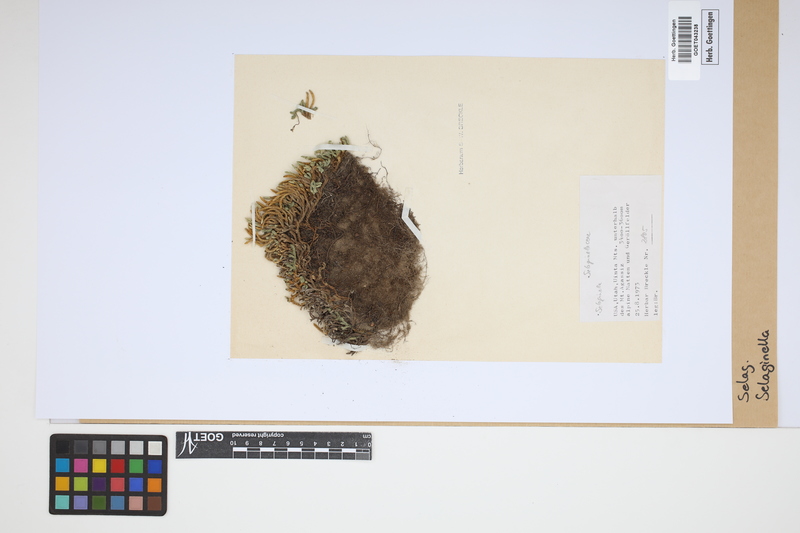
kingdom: Plantae
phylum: Tracheophyta
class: Lycopodiopsida
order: Selaginellales
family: Selaginellaceae
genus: Selaginella
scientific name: Selaginella
